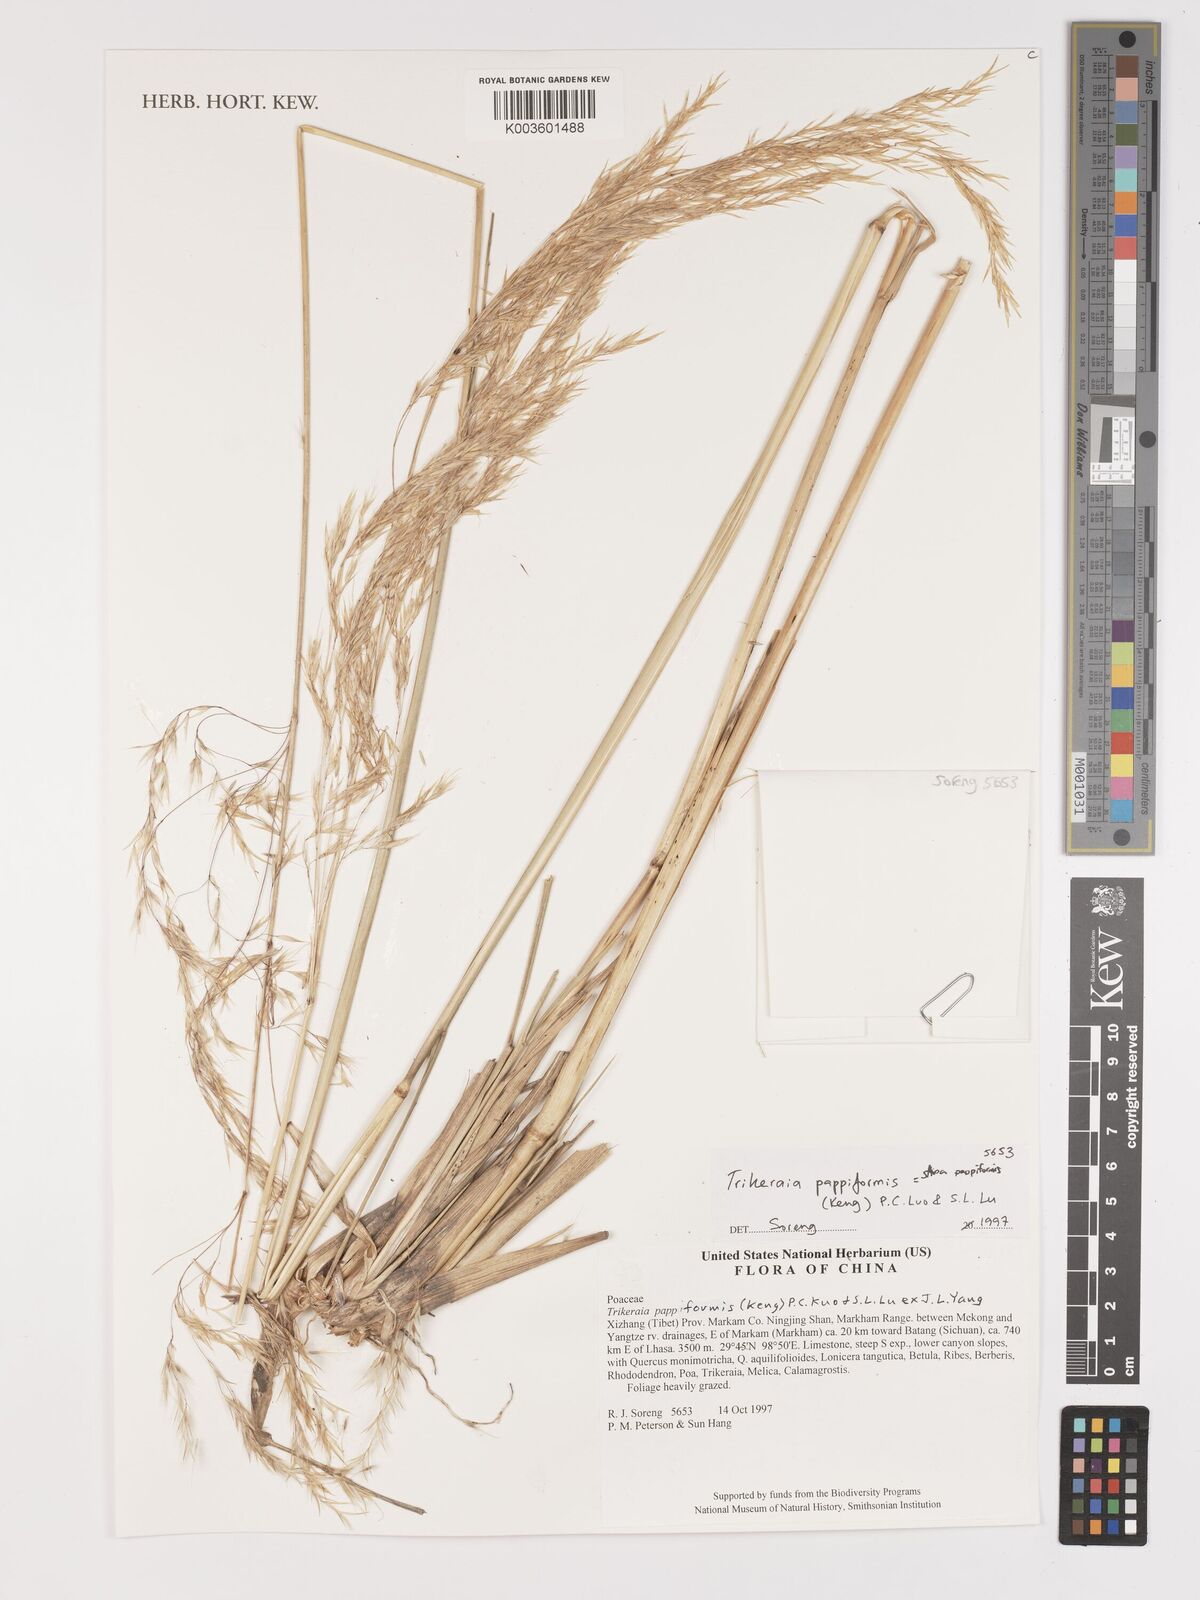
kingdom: Plantae
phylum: Tracheophyta
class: Liliopsida
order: Poales
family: Poaceae
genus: Trikeraia
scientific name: Trikeraia pappiformis
